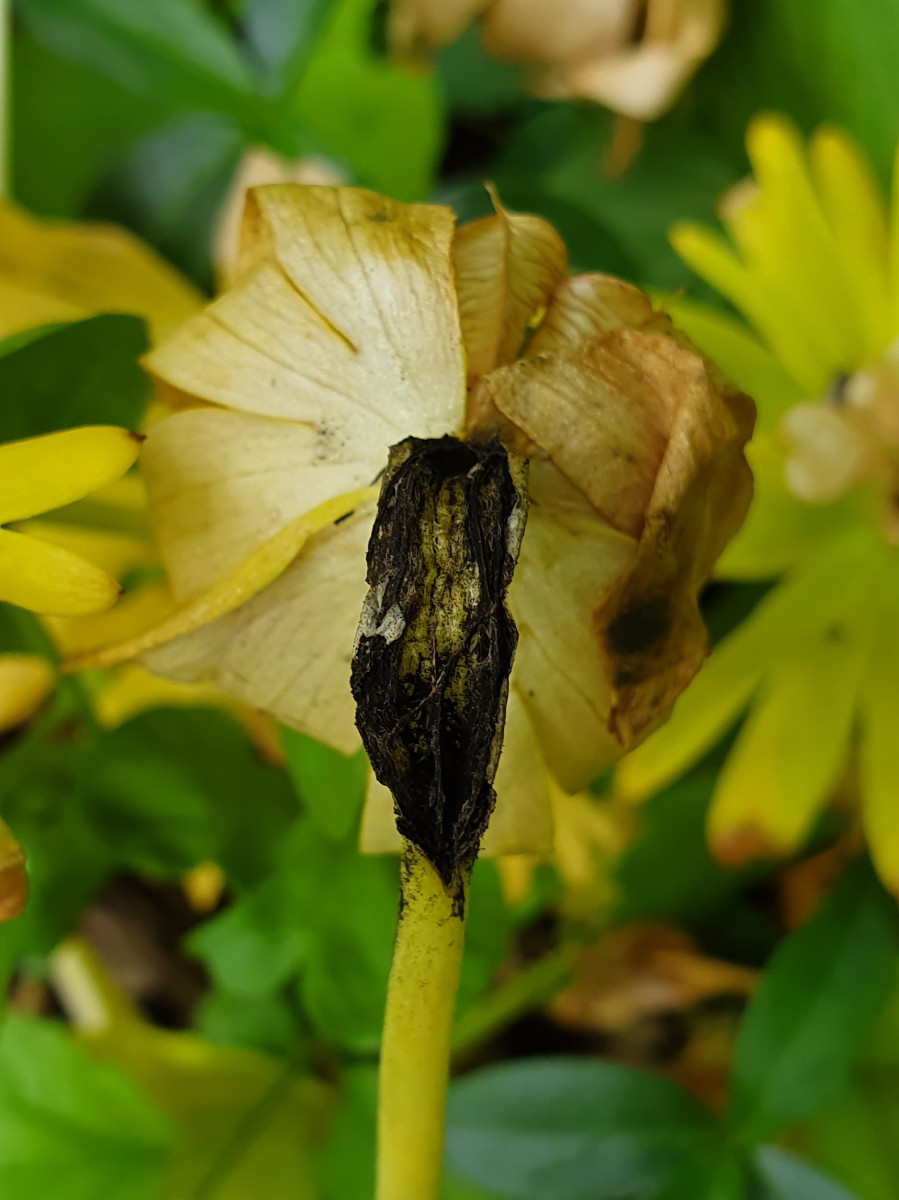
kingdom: Fungi
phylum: Basidiomycota
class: Ustilaginomycetes
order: Urocystidales
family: Urocystidaceae
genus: Urocystis
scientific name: Urocystis eranthidis
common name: erantis-brand
